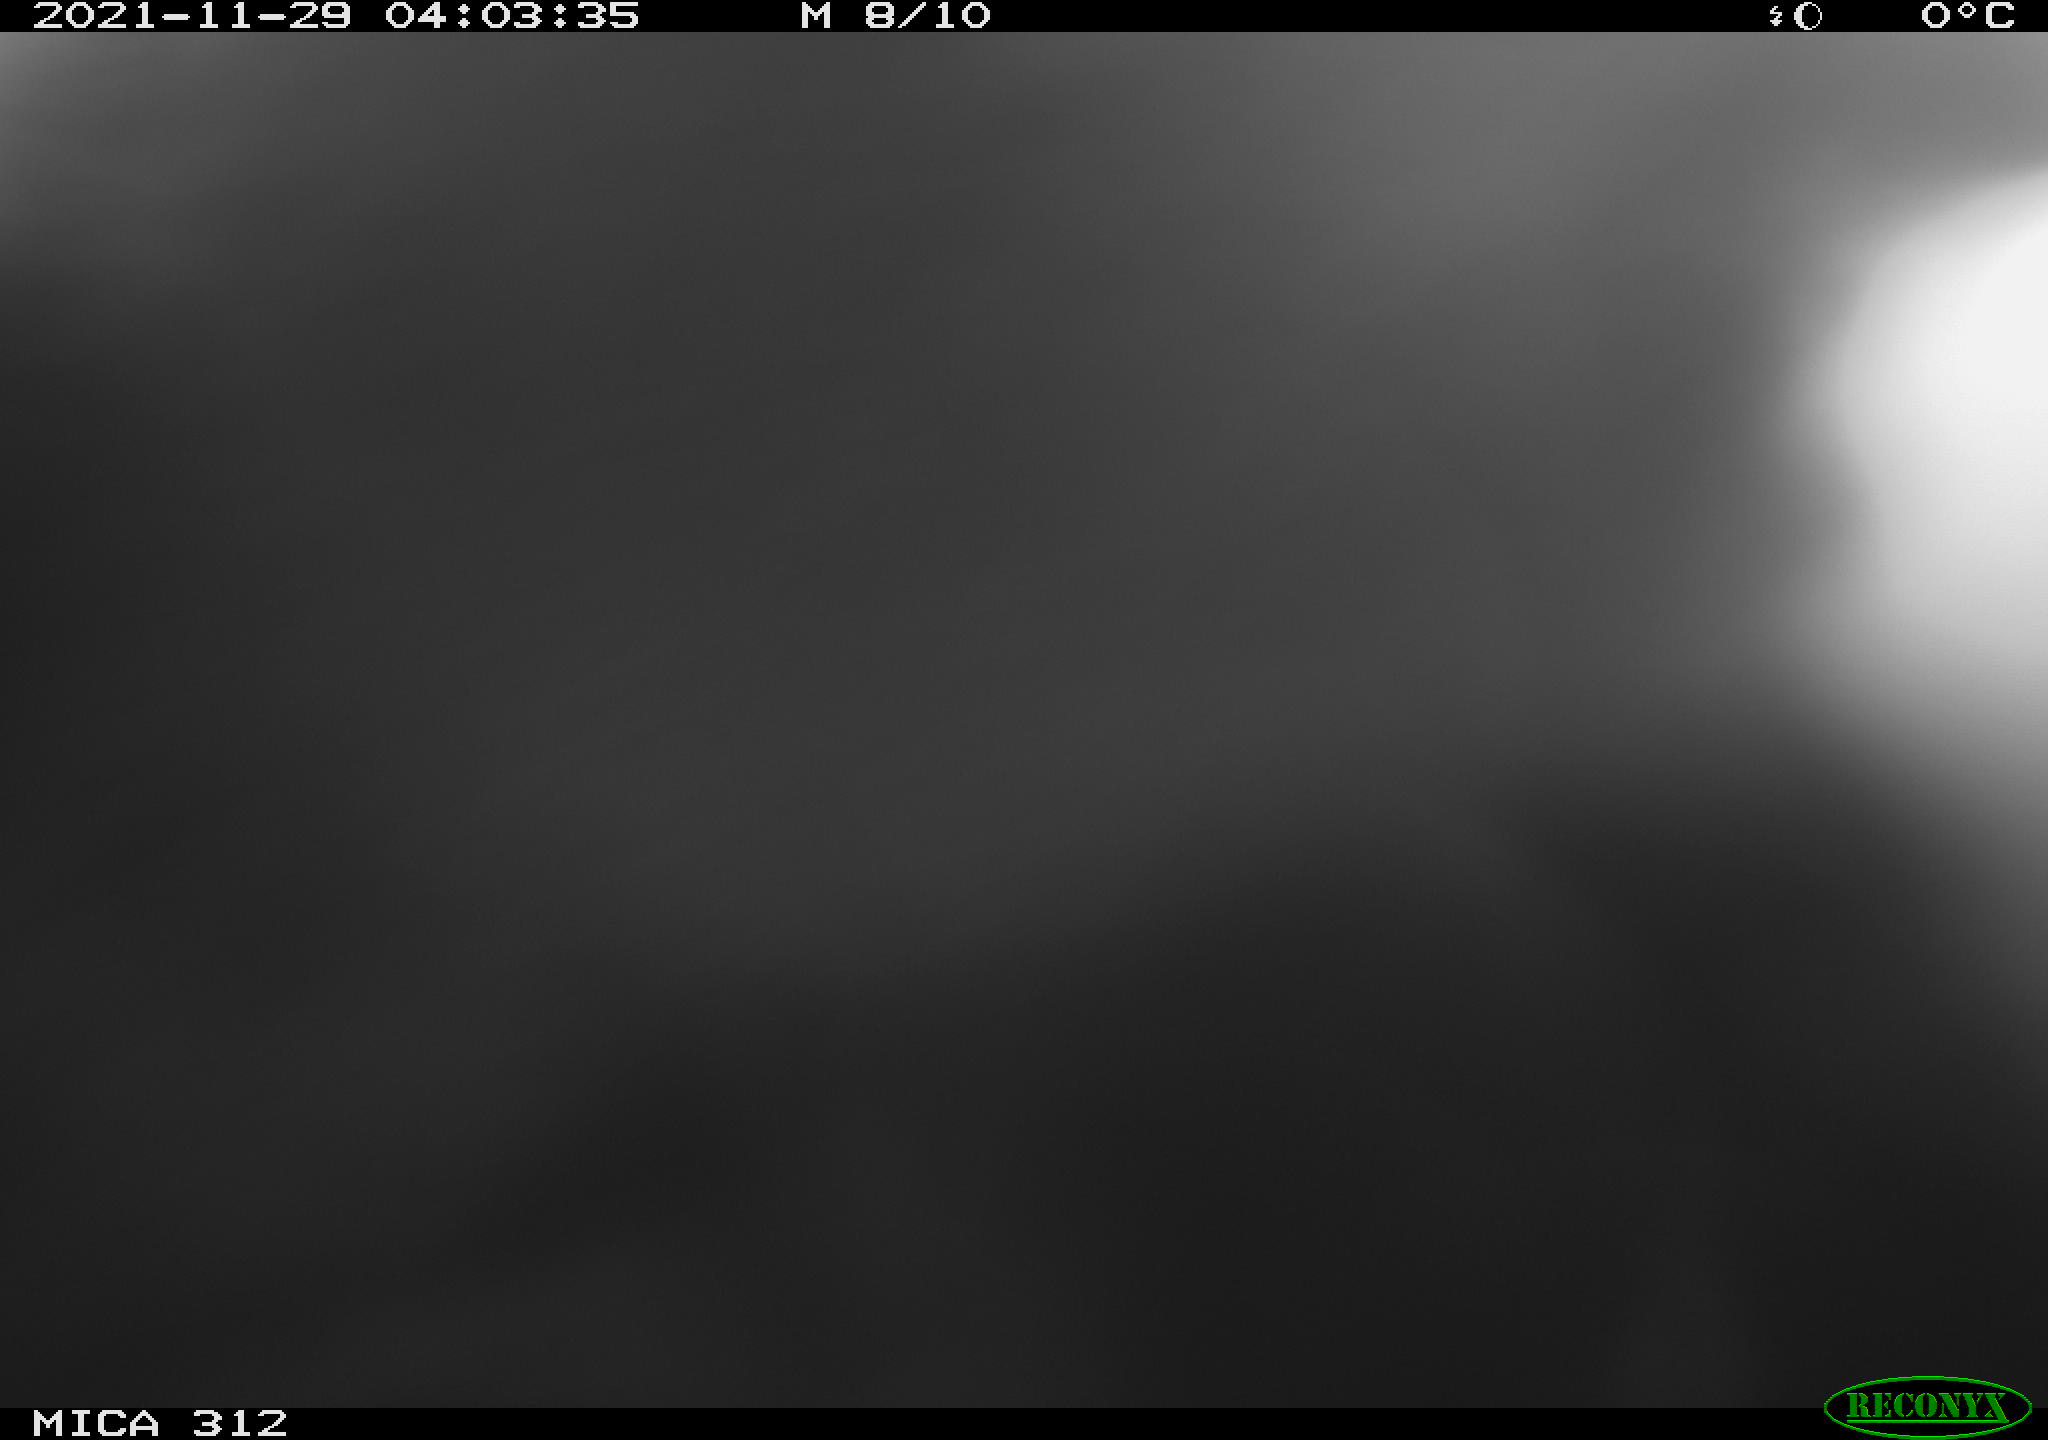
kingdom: Animalia
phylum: Chordata
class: Aves
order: Gruiformes
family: Rallidae
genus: Fulica
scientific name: Fulica atra
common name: Eurasian coot
